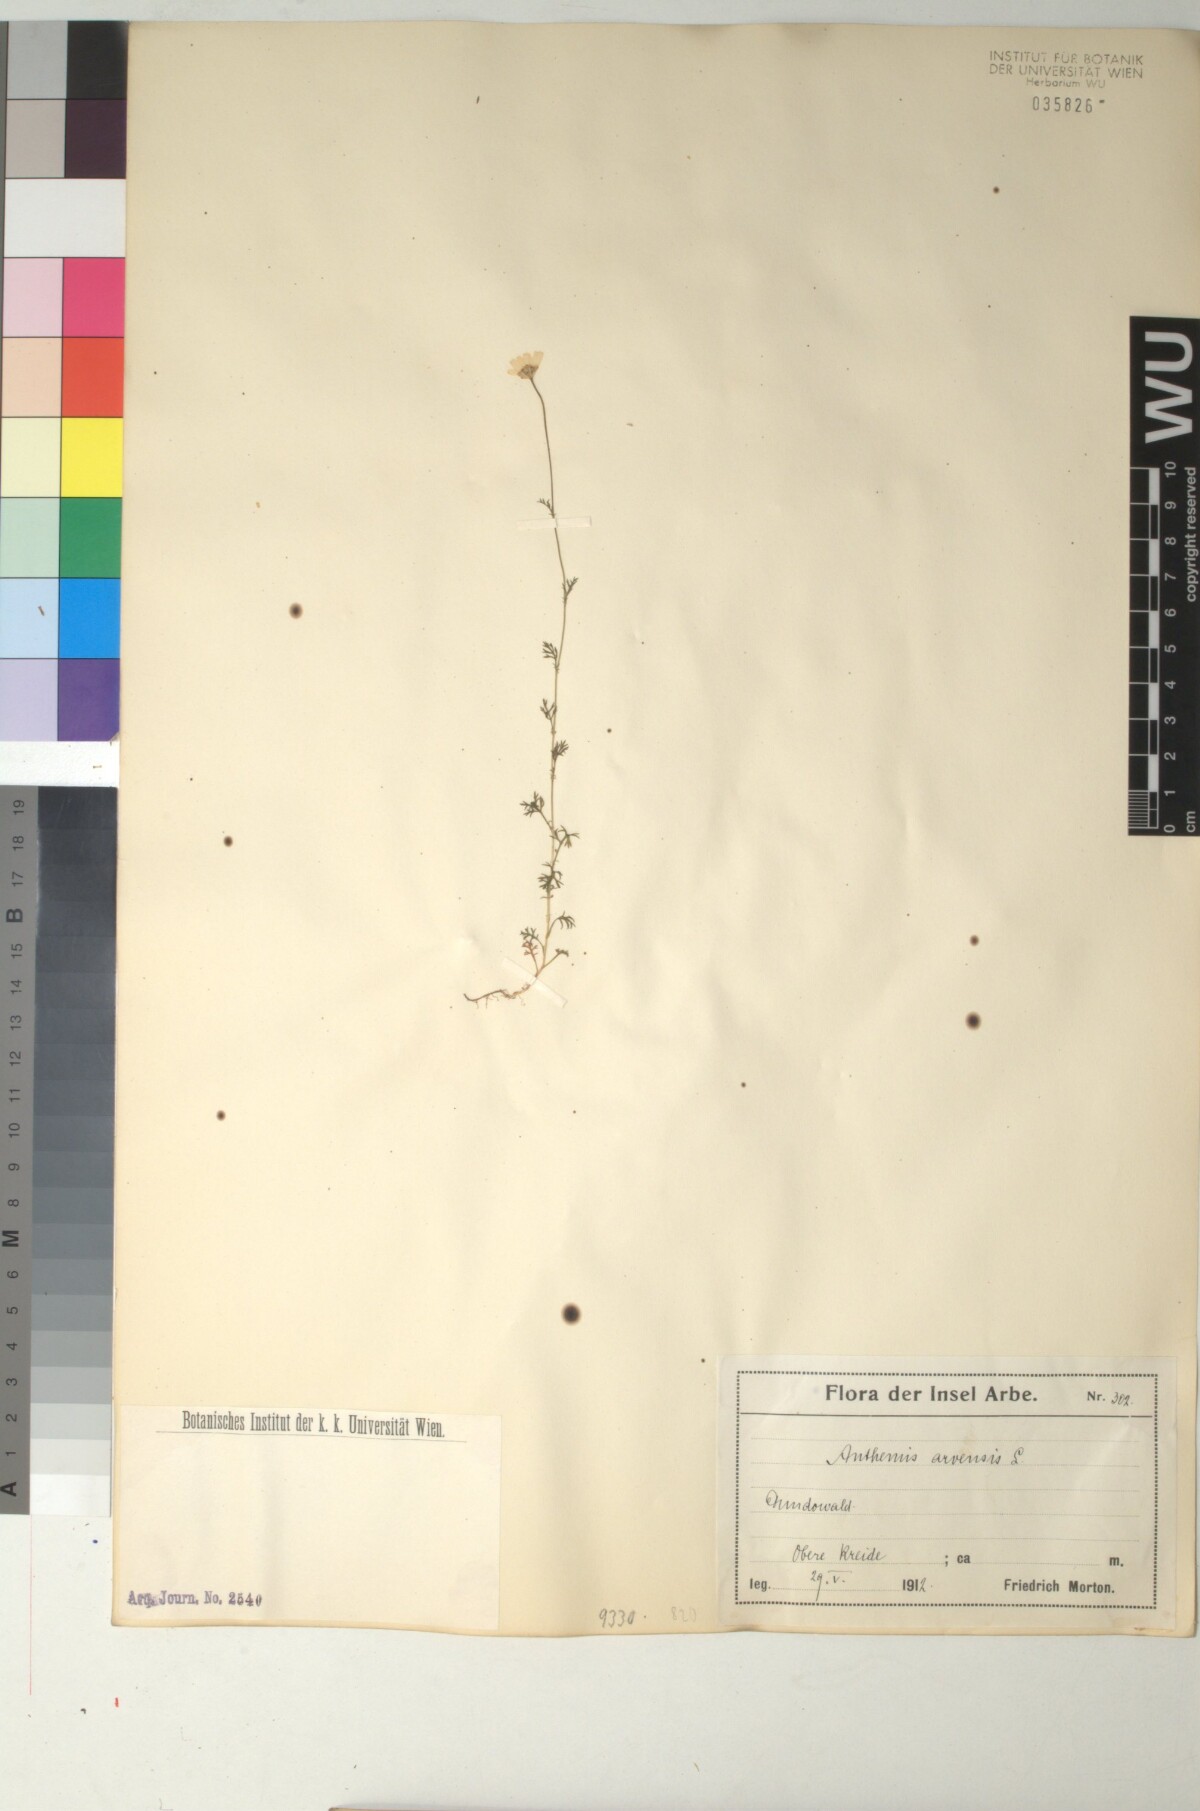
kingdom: Plantae
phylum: Tracheophyta
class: Magnoliopsida
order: Asterales
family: Asteraceae
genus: Anthemis
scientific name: Anthemis arvensis
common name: Corn chamomile
